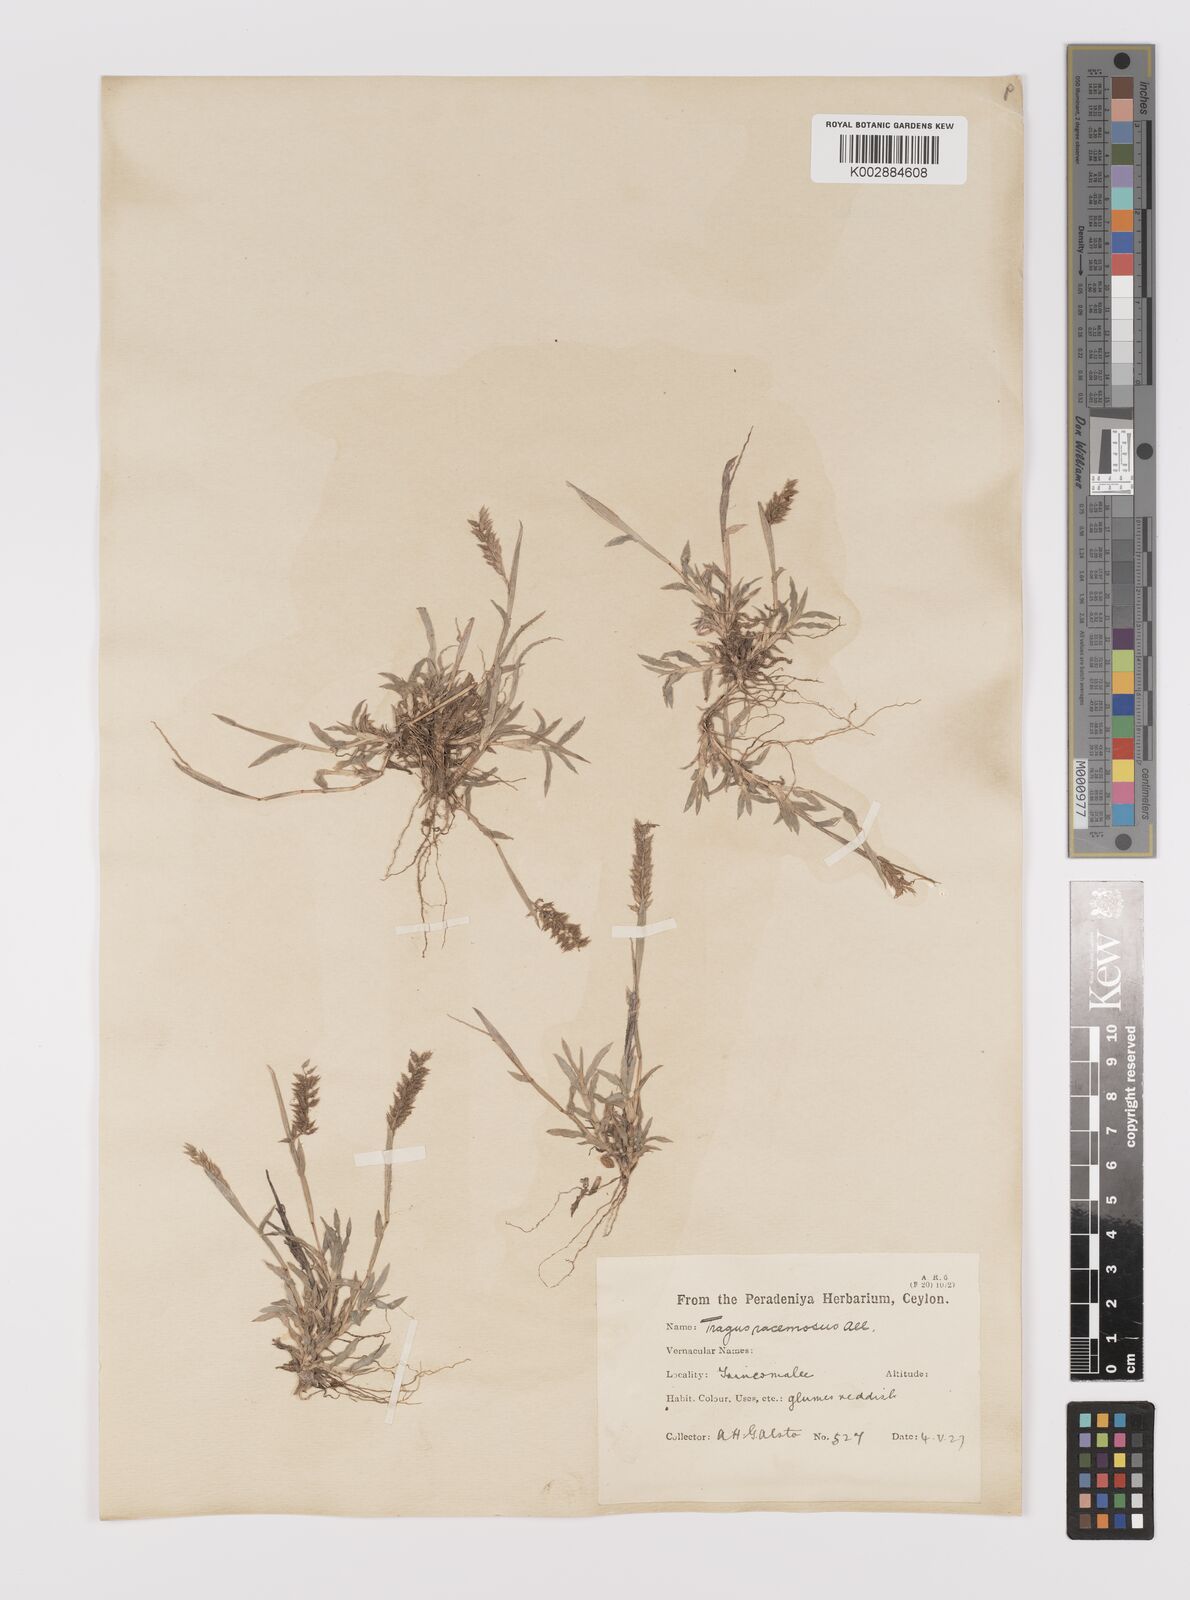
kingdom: Plantae
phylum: Tracheophyta
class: Liliopsida
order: Poales
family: Poaceae
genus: Tragus
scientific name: Tragus mongolorum
